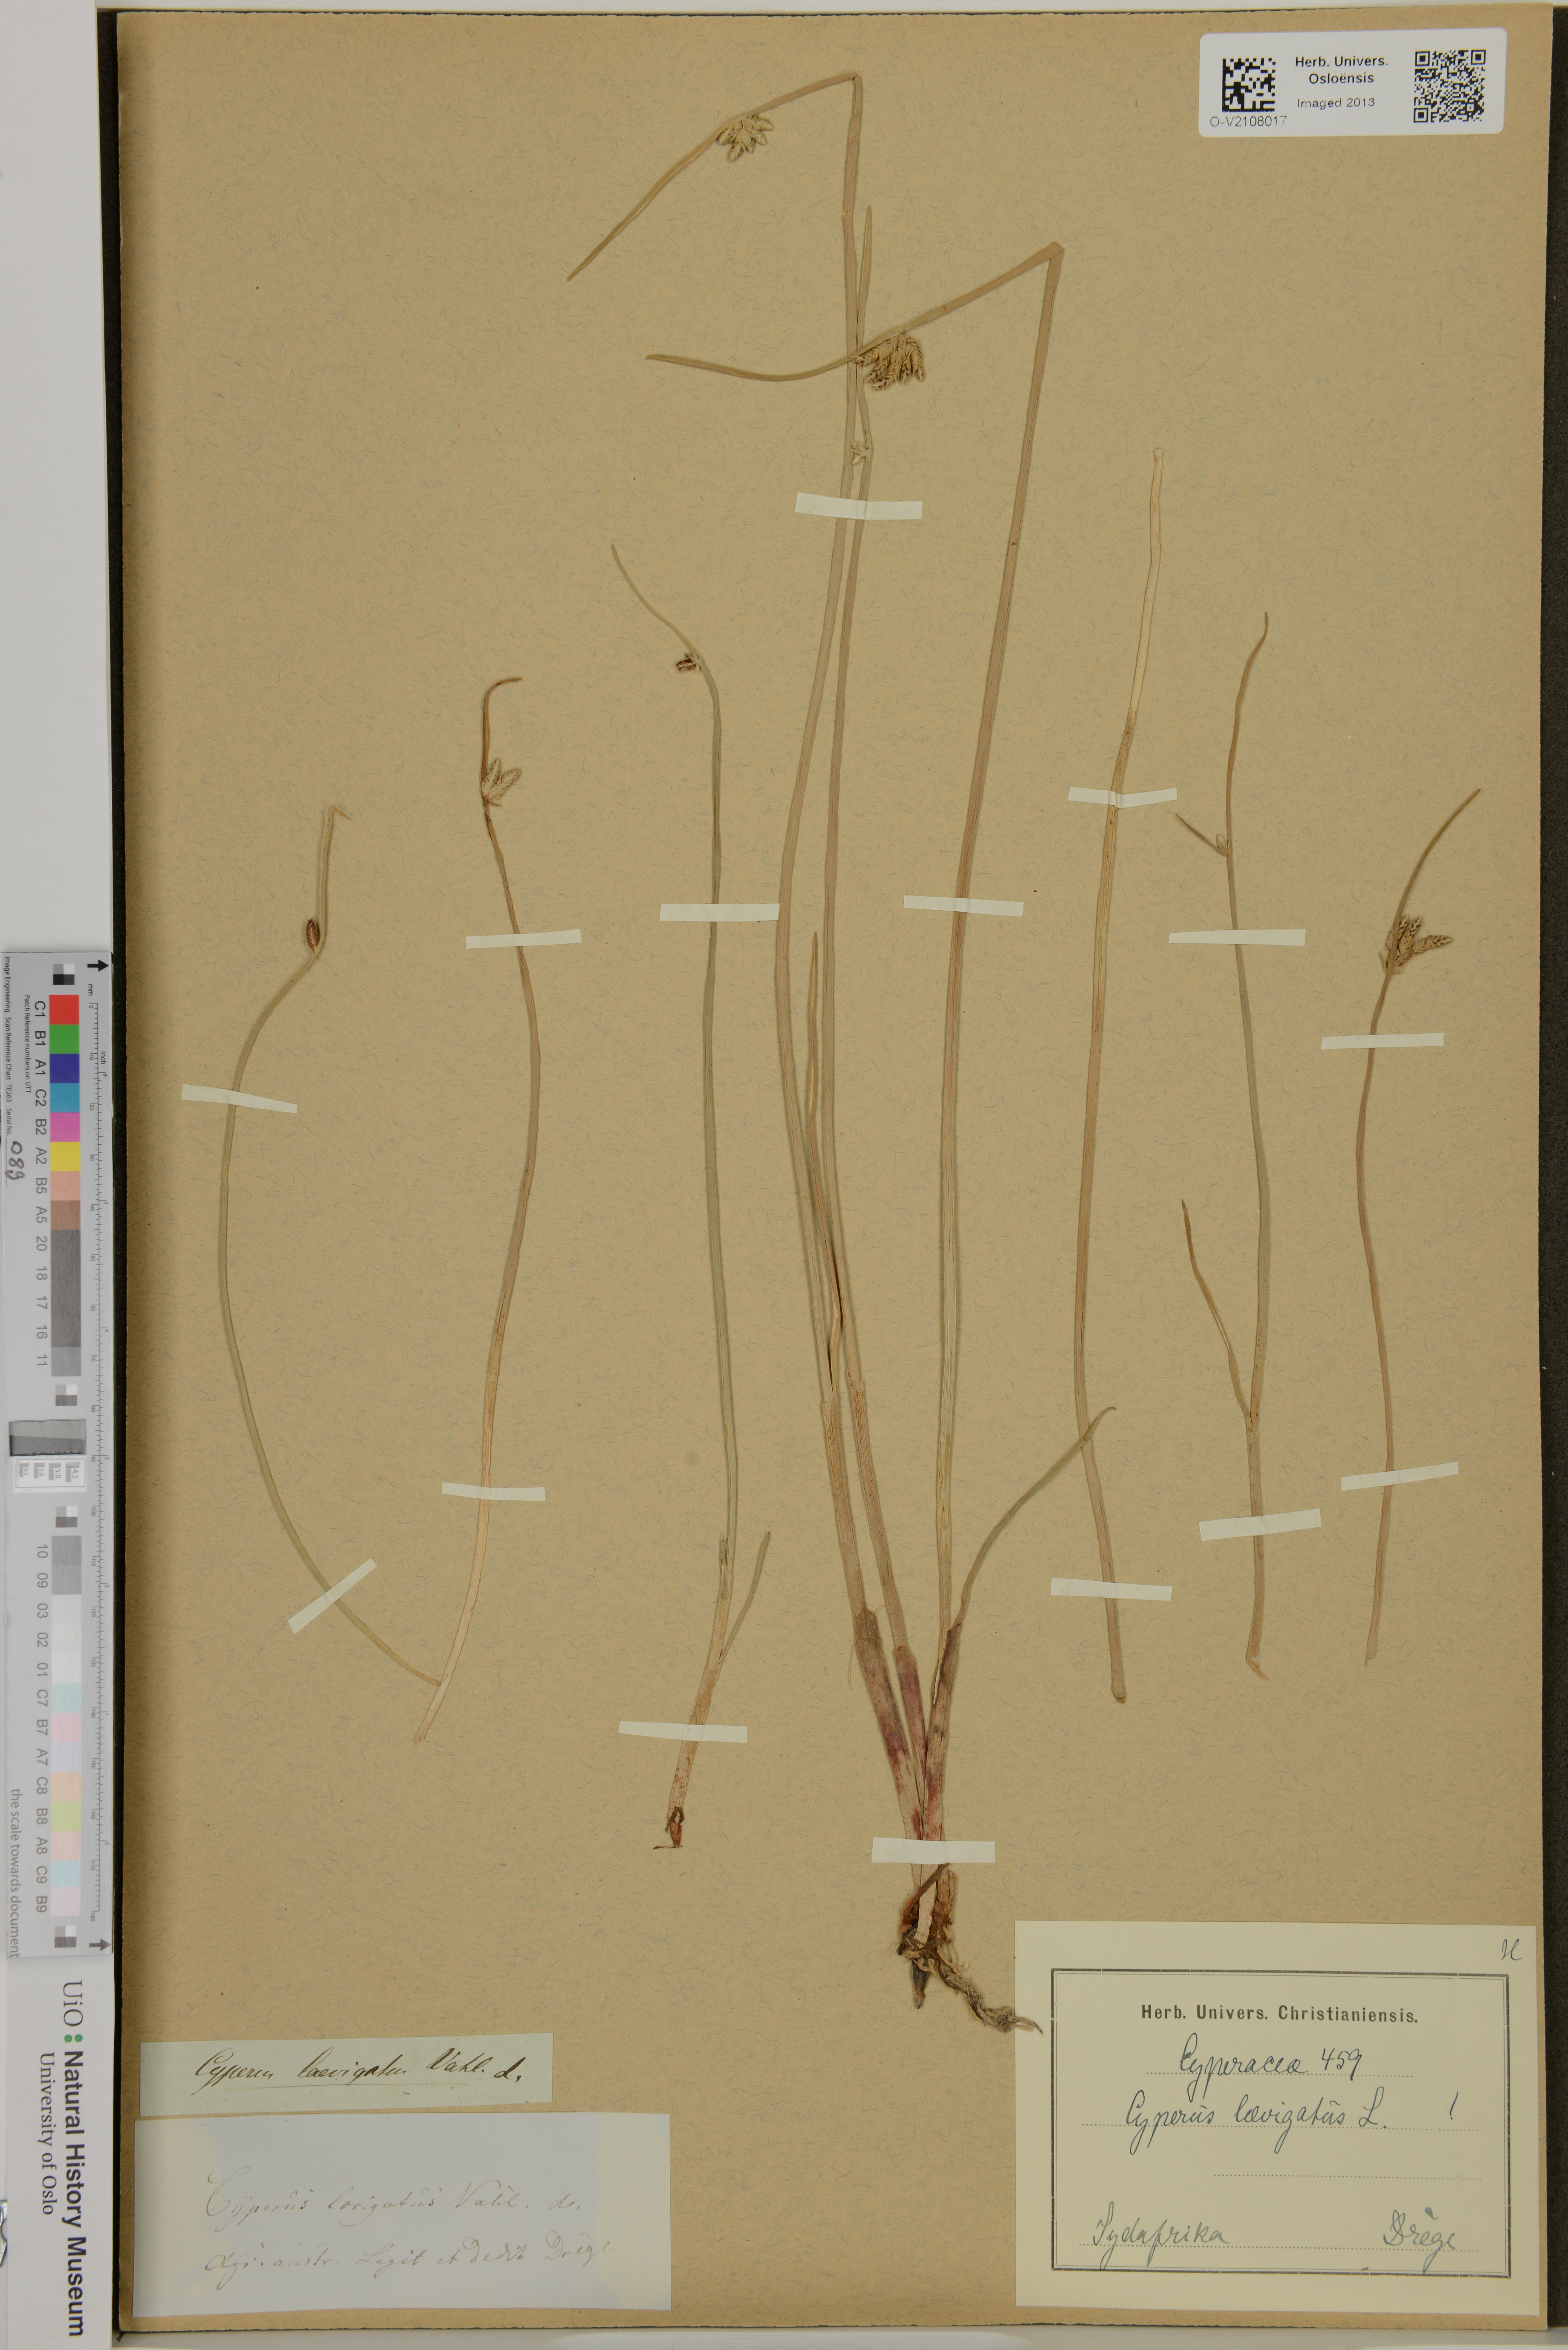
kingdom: Plantae
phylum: Tracheophyta
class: Liliopsida
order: Poales
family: Cyperaceae
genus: Cyperus
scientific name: Cyperus laevigatus
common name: Smooth flat sedge
